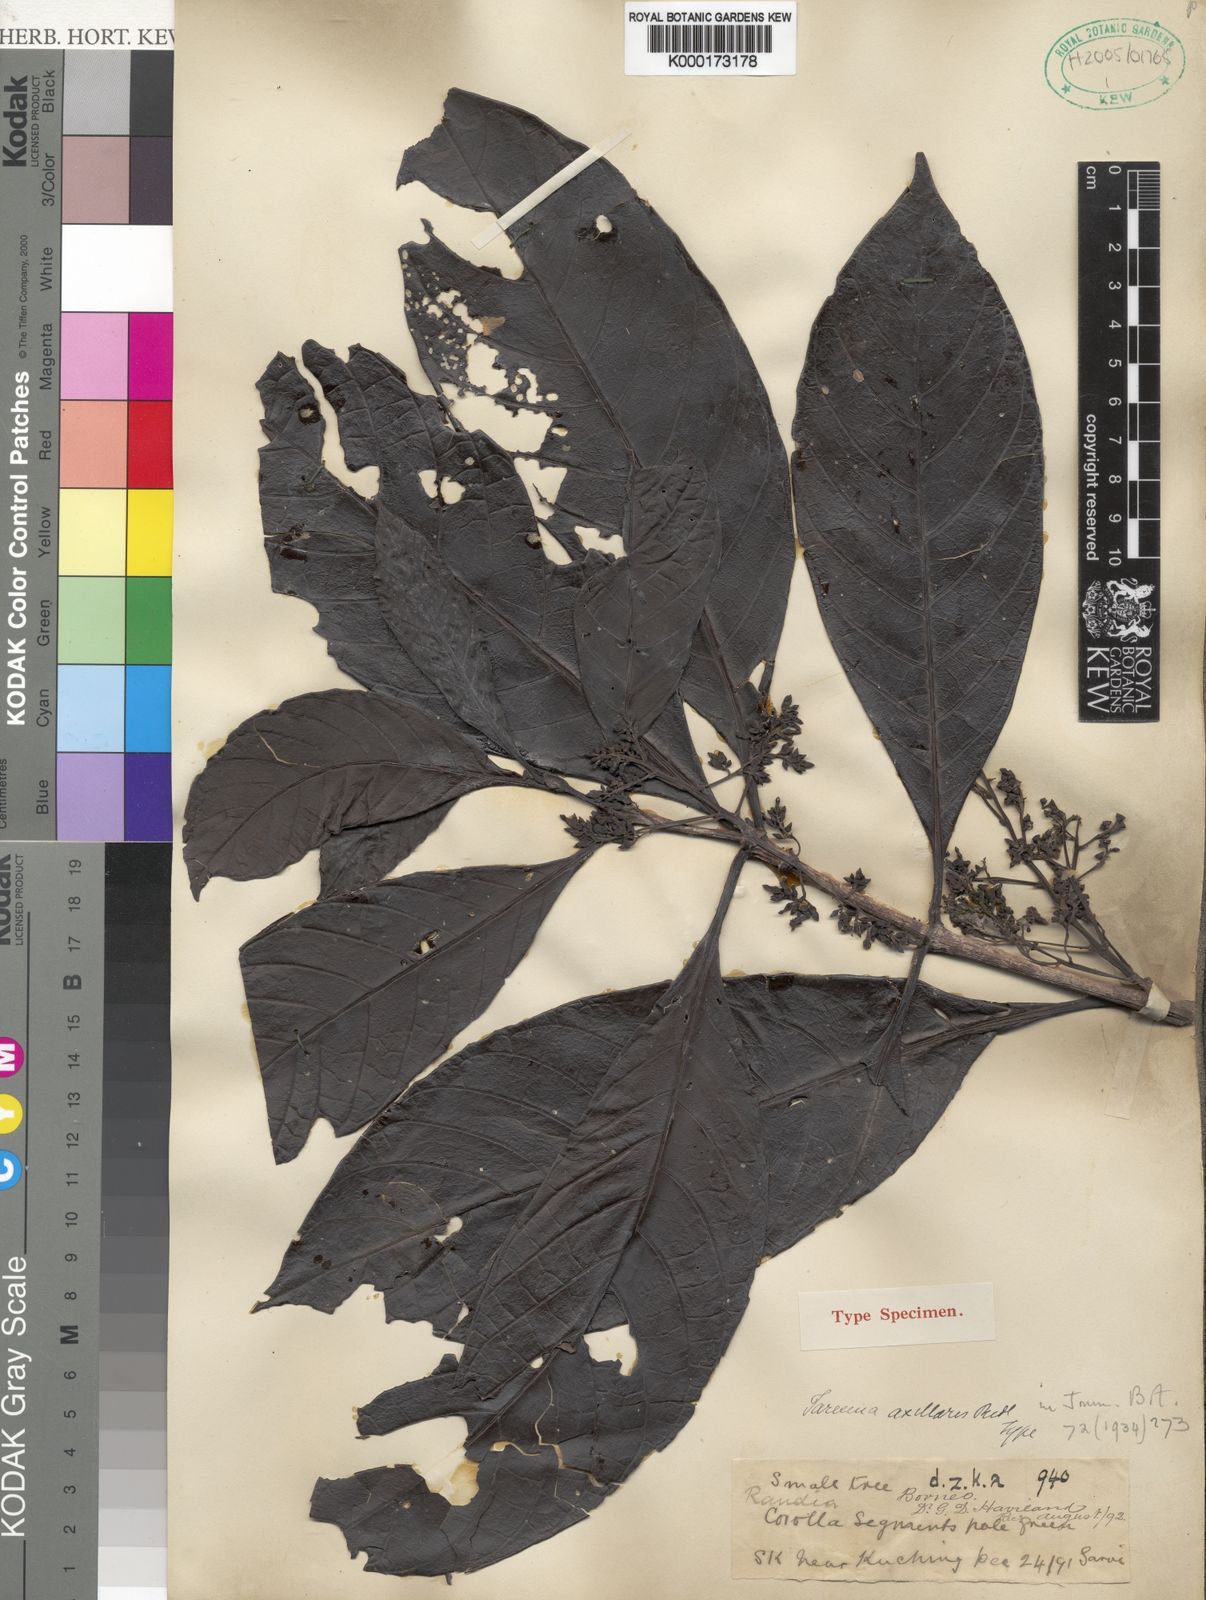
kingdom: Plantae
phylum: Tracheophyta
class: Magnoliopsida
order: Gentianales
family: Rubiaceae
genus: Tarennoidea
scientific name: Tarennoidea axillaris
